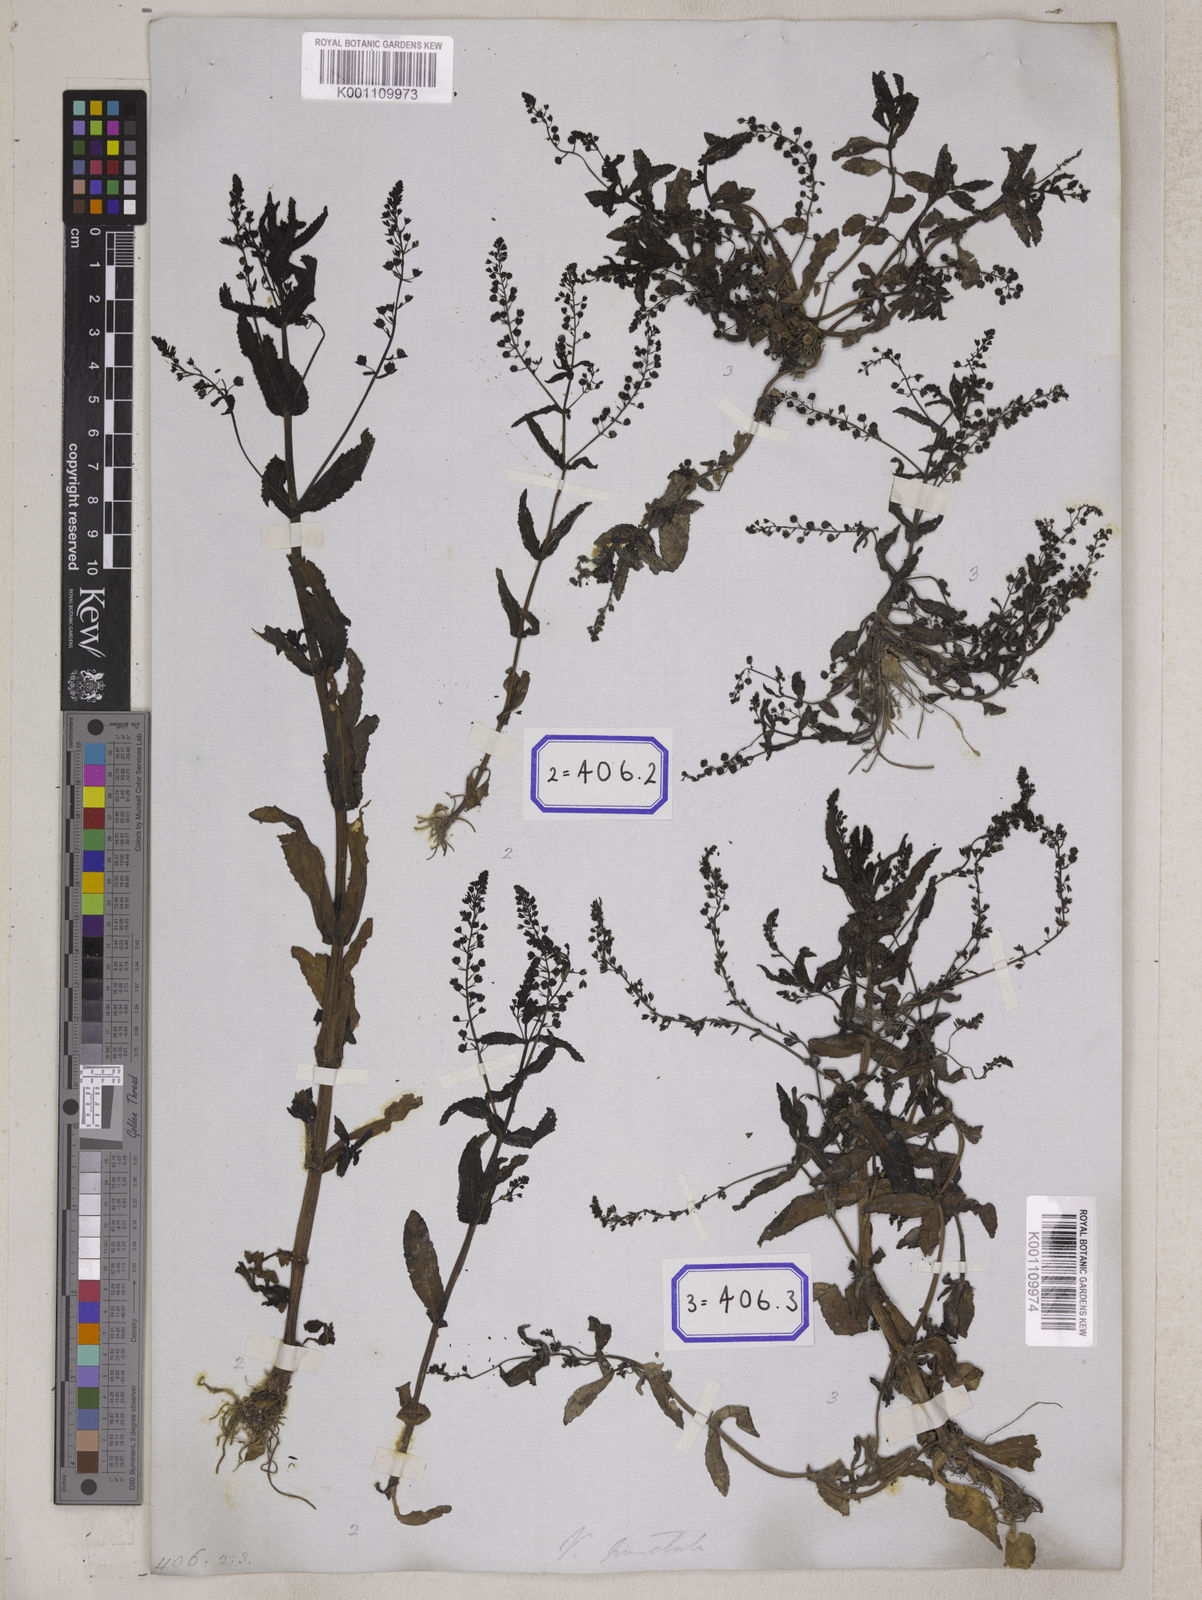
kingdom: Plantae
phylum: Tracheophyta
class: Magnoliopsida
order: Lamiales
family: Plantaginaceae
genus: Veronica
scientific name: Veronica undulata
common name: Undulate speedwell
